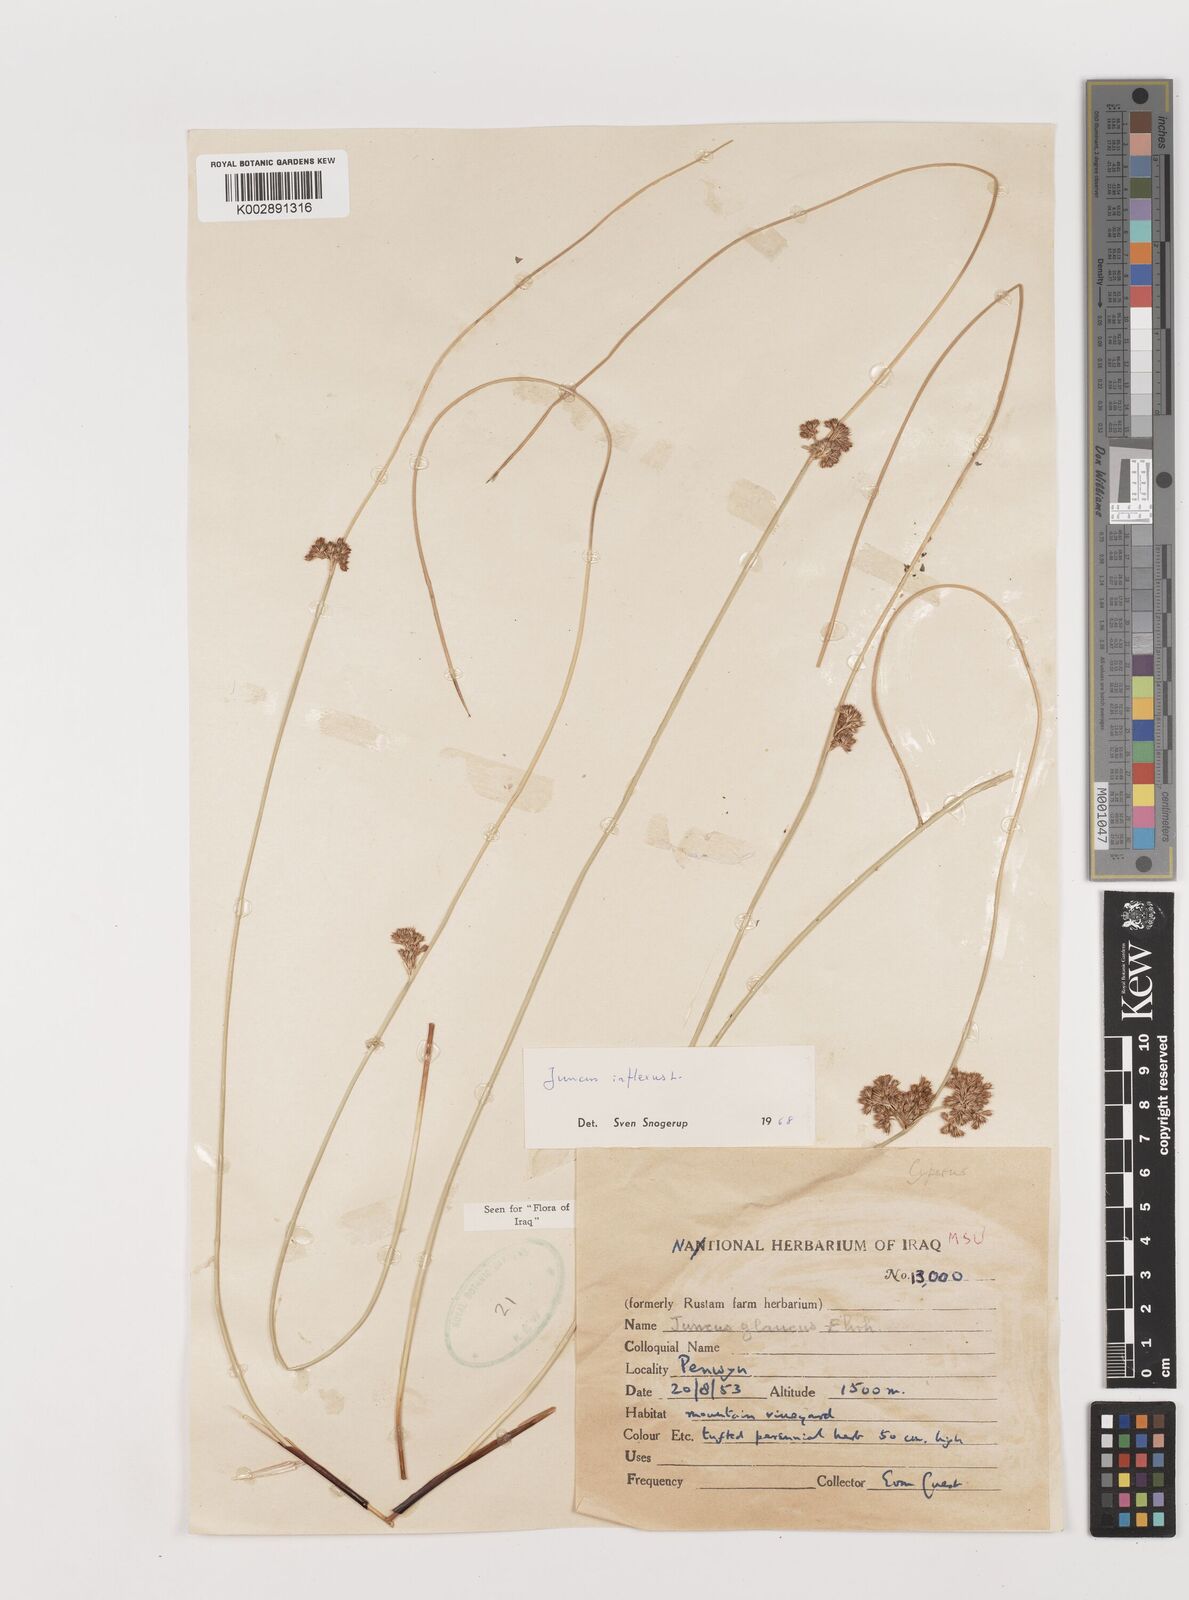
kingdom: Plantae
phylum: Tracheophyta
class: Liliopsida
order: Poales
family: Juncaceae
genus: Juncus
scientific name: Juncus inflexus
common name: Hard rush
